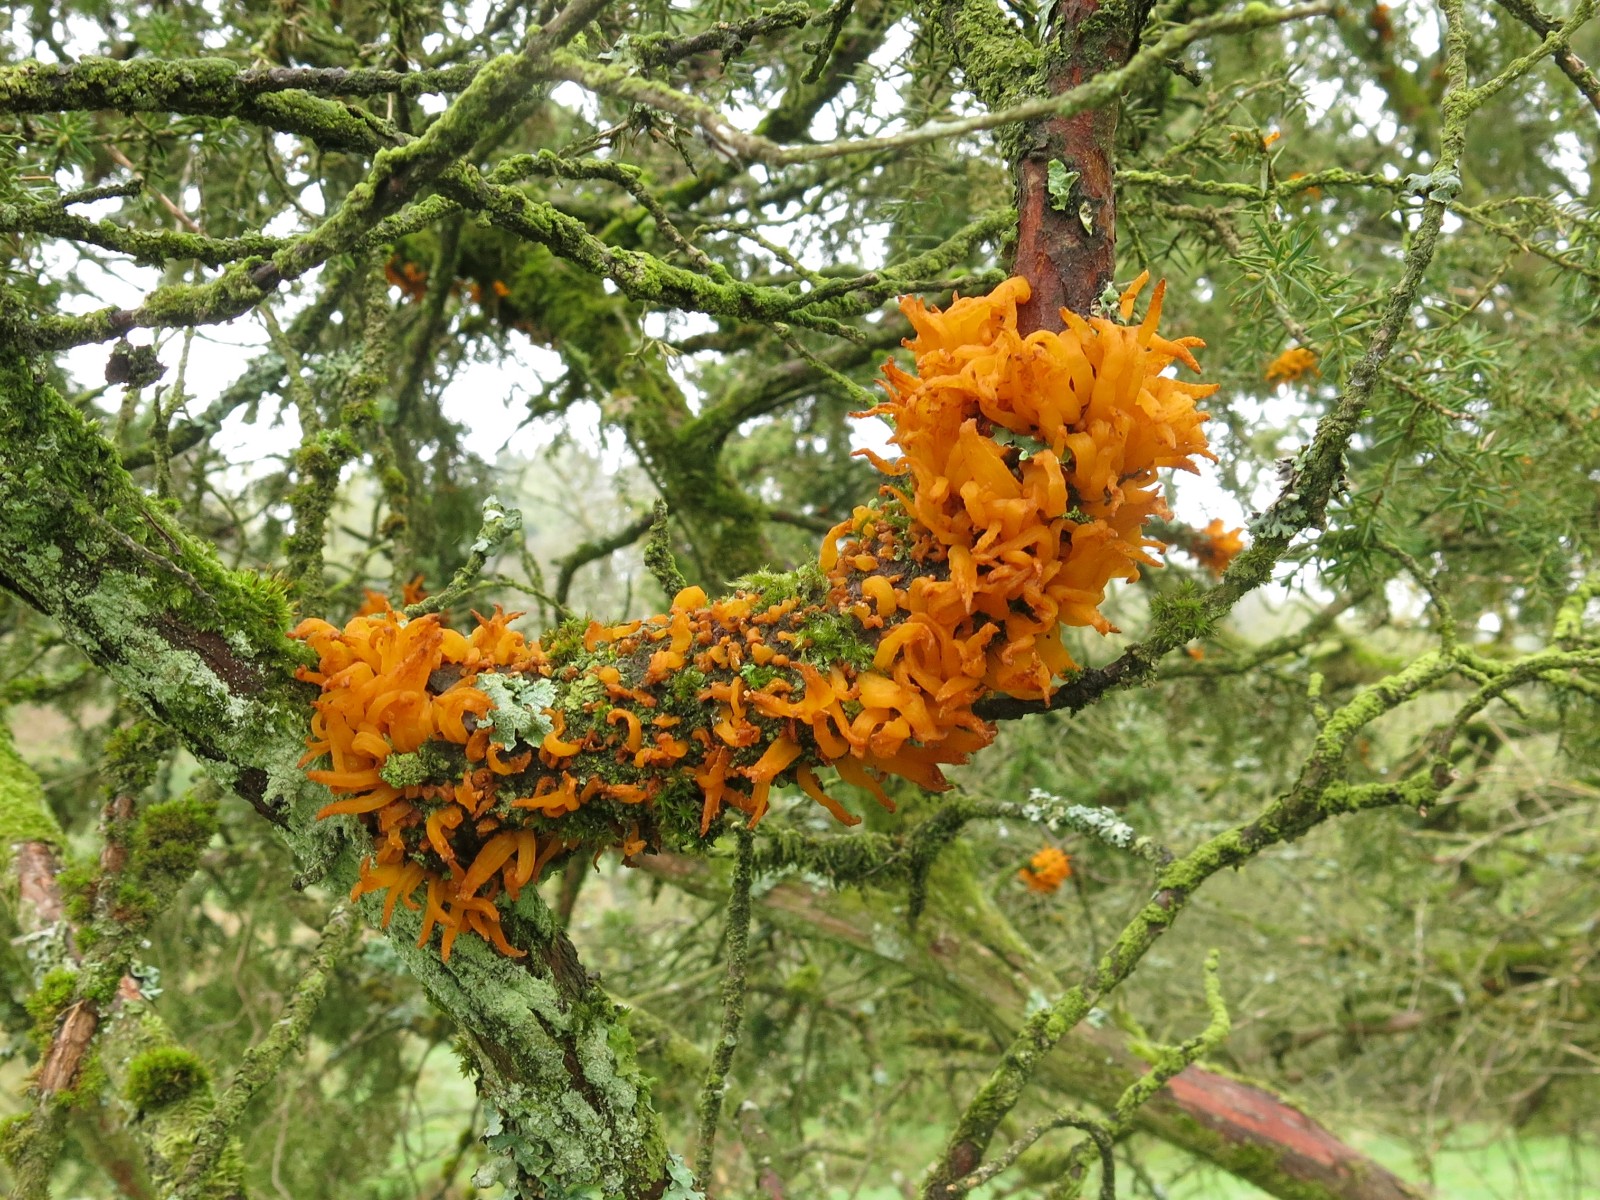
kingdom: Fungi
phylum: Basidiomycota
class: Pucciniomycetes
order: Pucciniales
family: Gymnosporangiaceae
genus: Gymnosporangium
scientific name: Gymnosporangium clavariiforme
